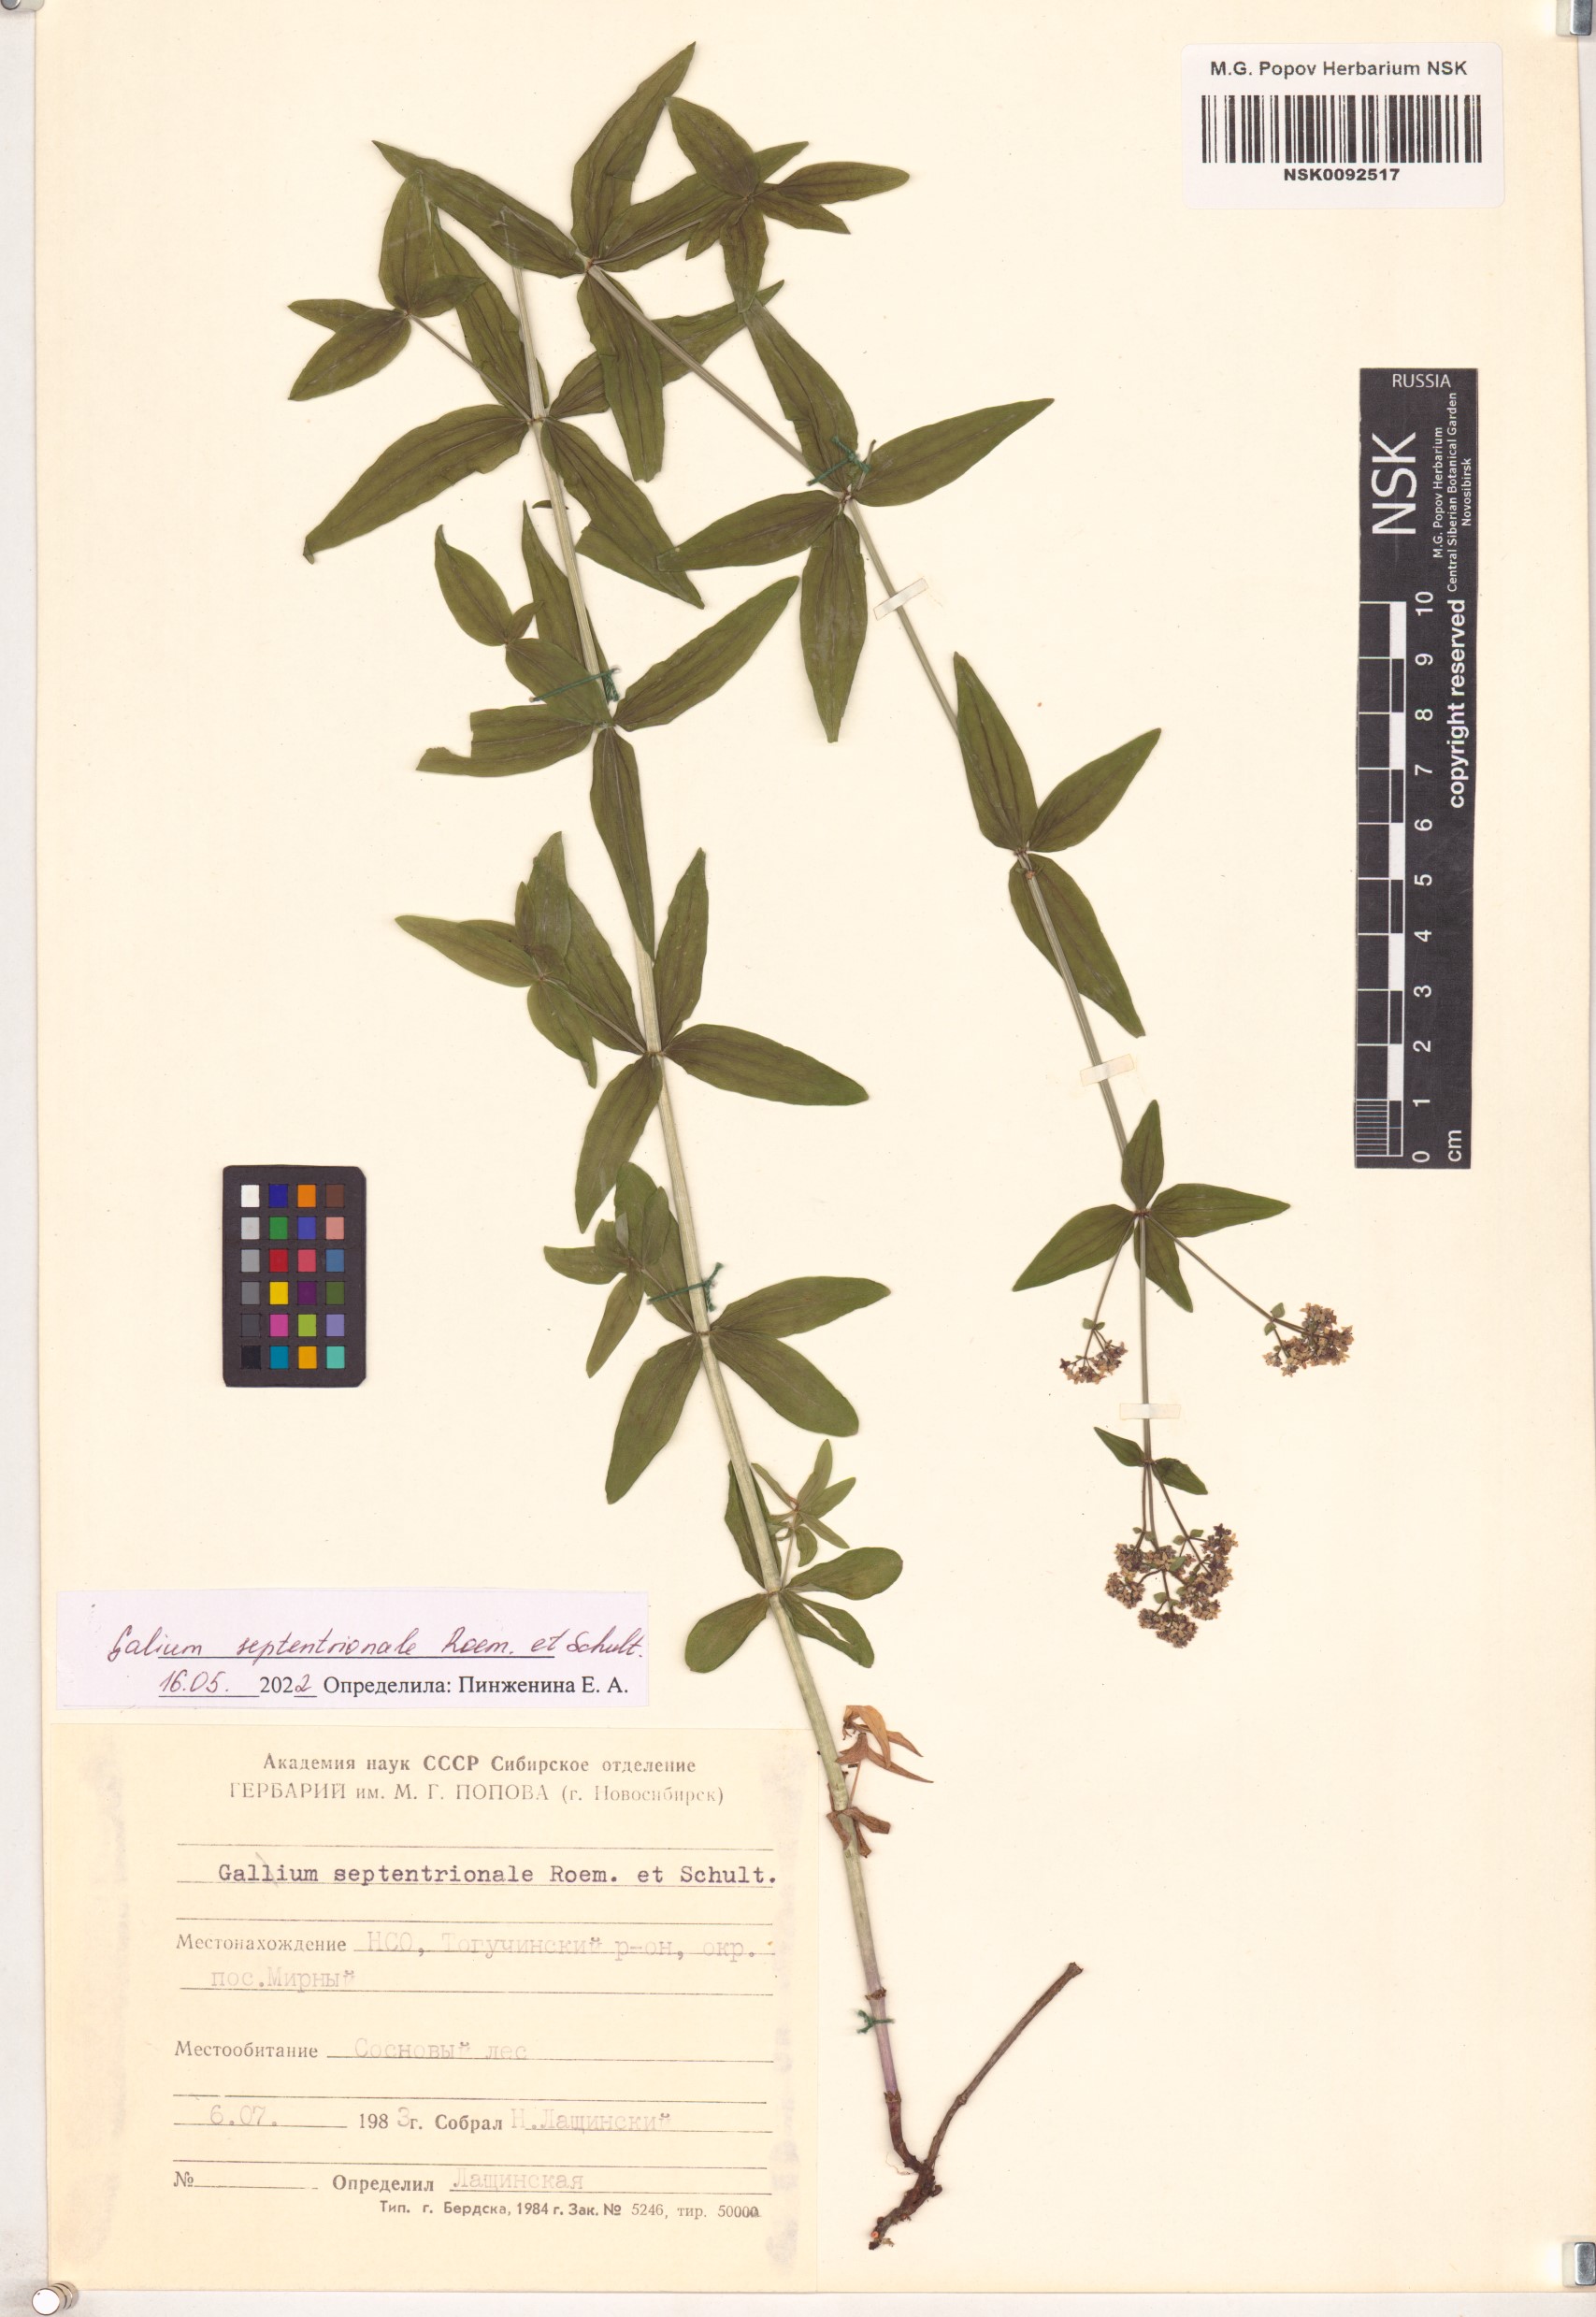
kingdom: Plantae
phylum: Tracheophyta
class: Magnoliopsida
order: Gentianales
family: Rubiaceae
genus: Galium
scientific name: Galium boreale
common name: Northern bedstraw
